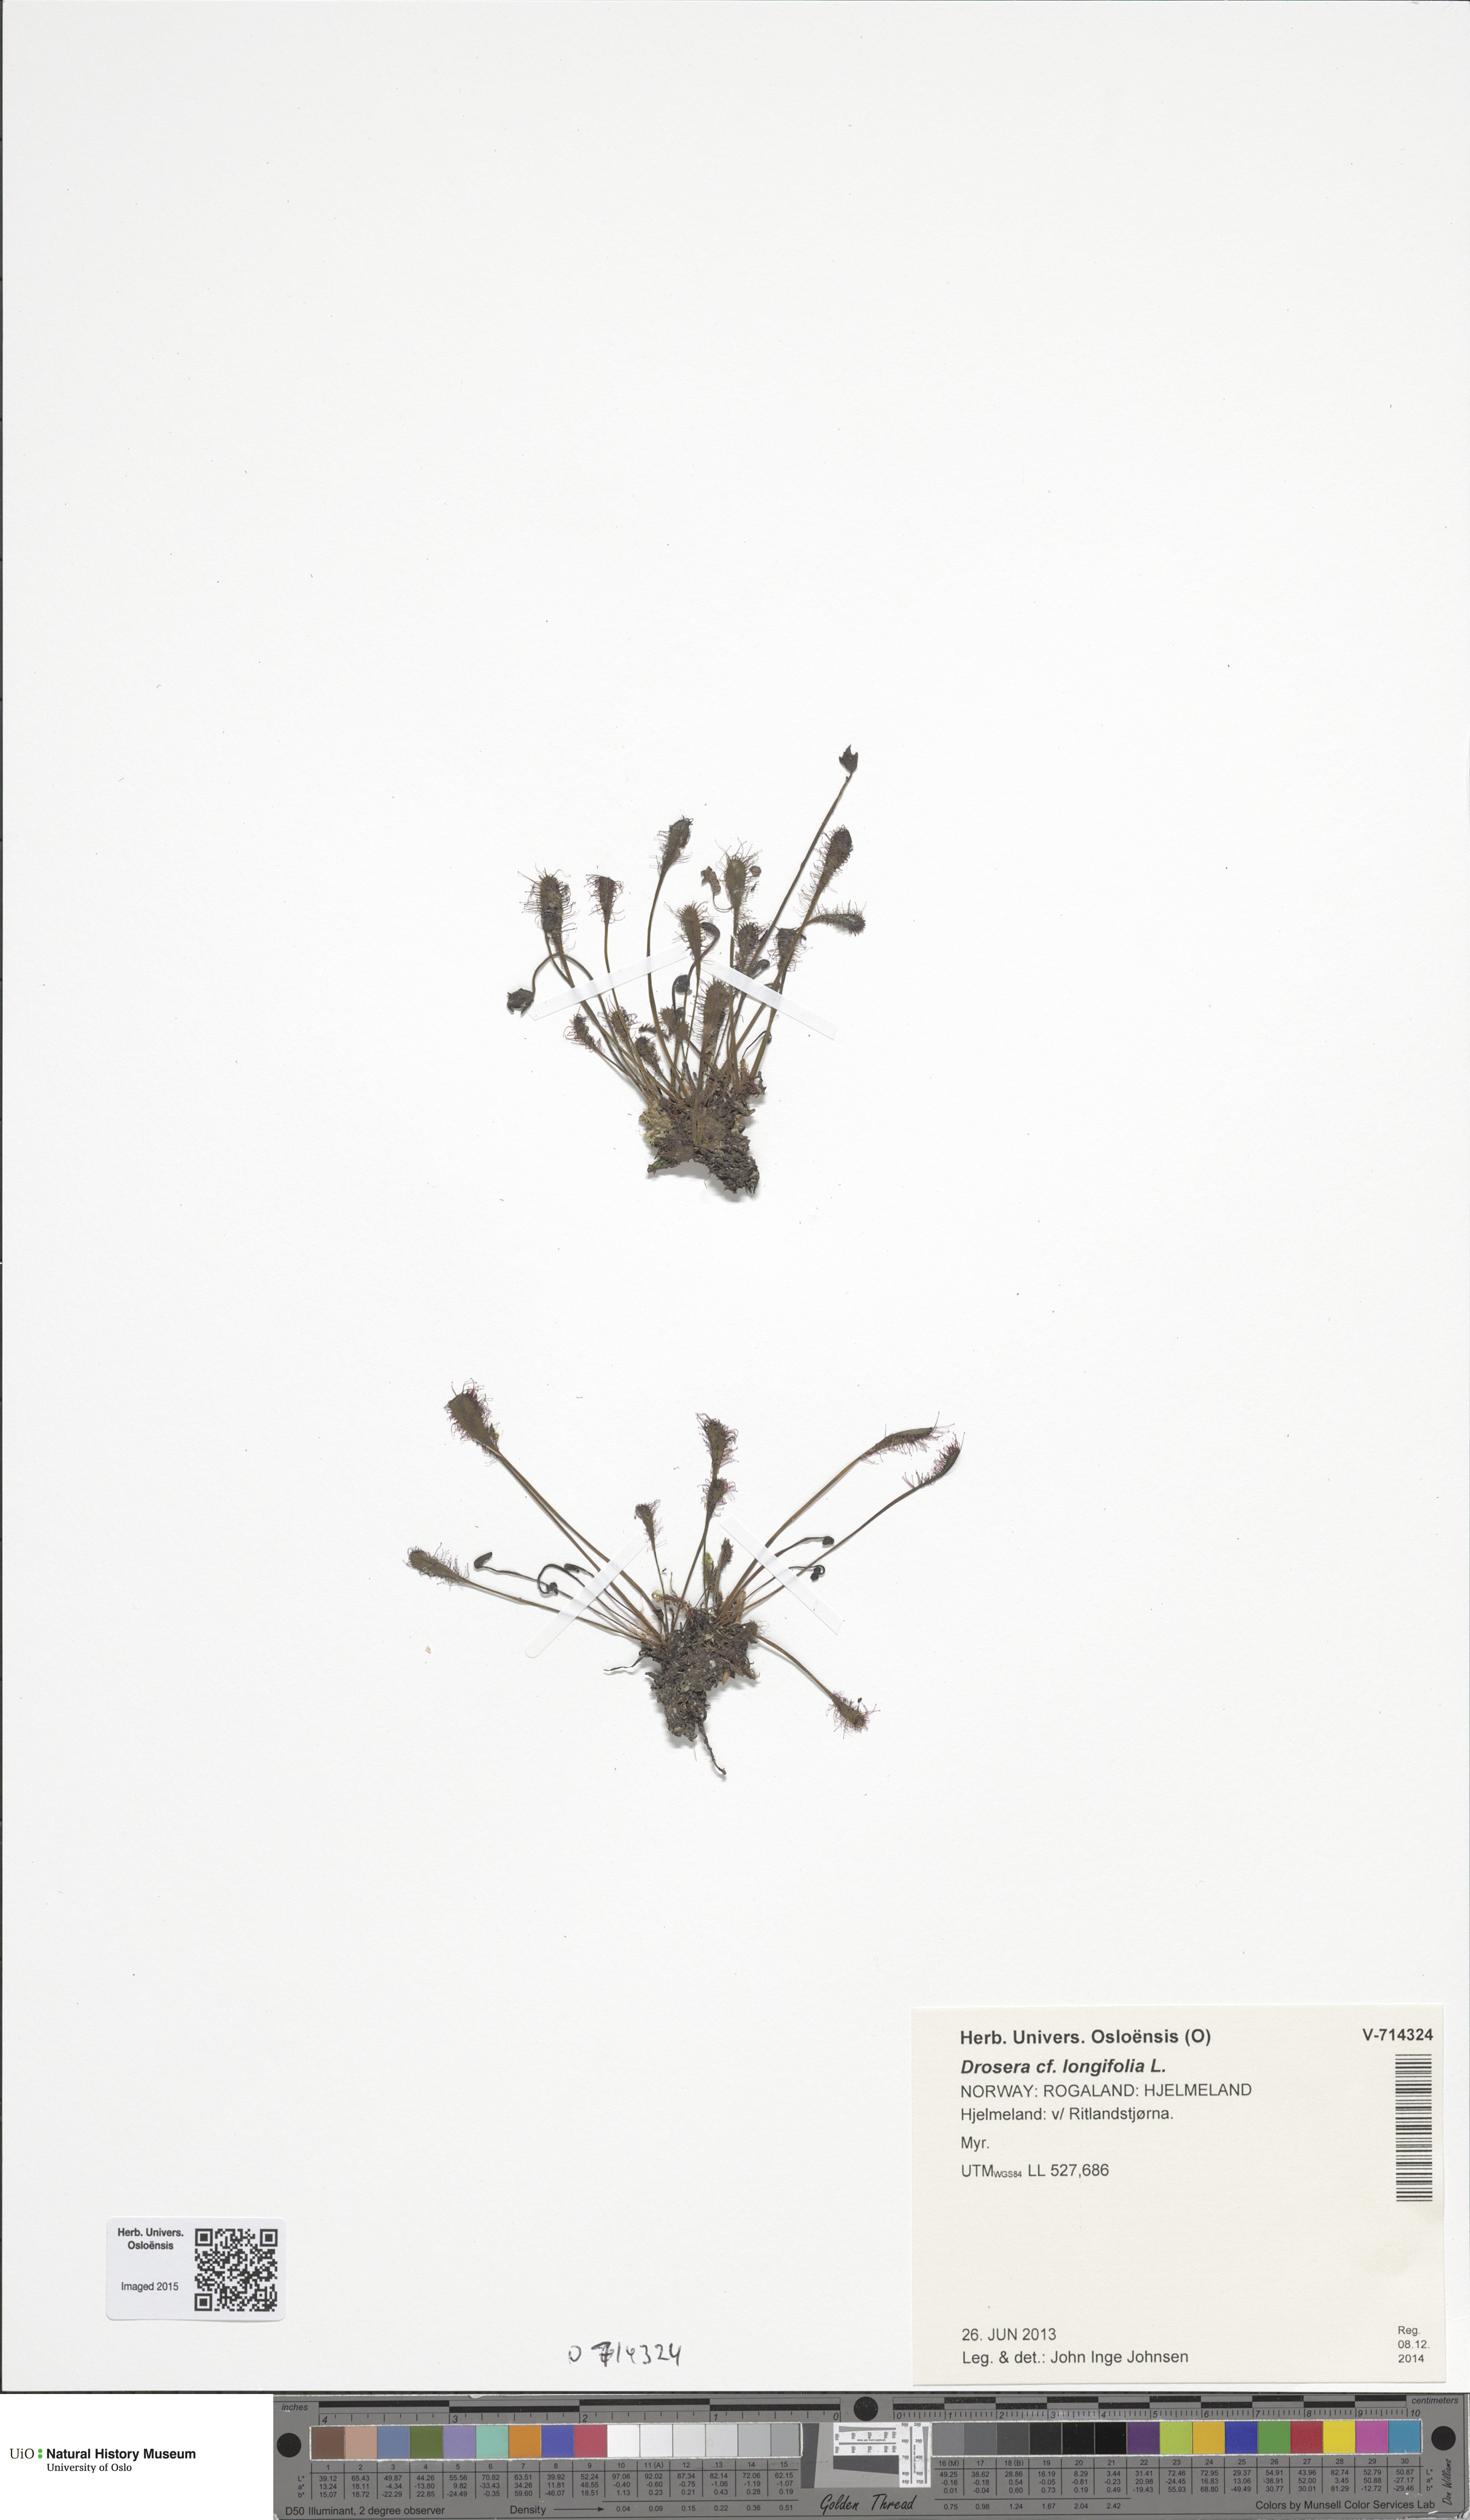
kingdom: Plantae
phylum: Tracheophyta
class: Magnoliopsida
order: Caryophyllales
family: Droseraceae
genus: Drosera
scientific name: Drosera anglica
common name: Great sundew
